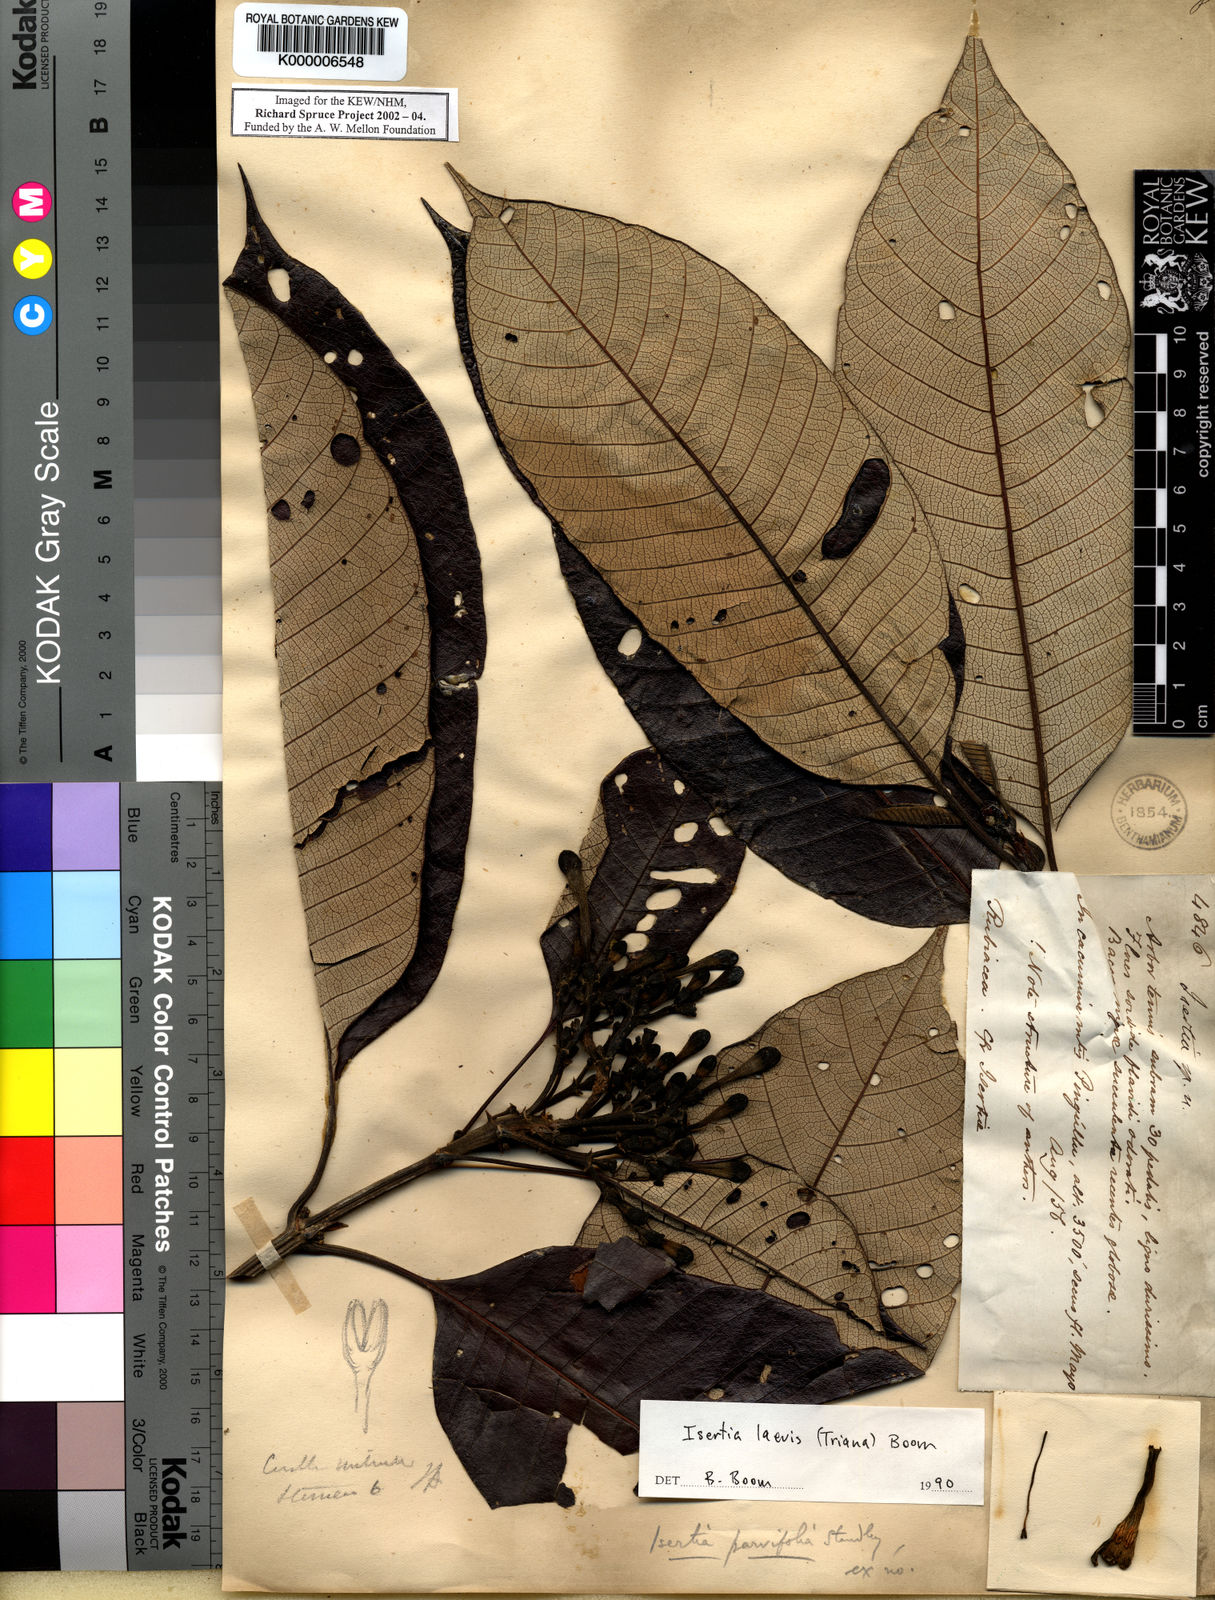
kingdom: Plantae
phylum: Tracheophyta
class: Magnoliopsida
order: Gentianales
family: Rubiaceae
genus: Isertia
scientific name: Isertia laevis
